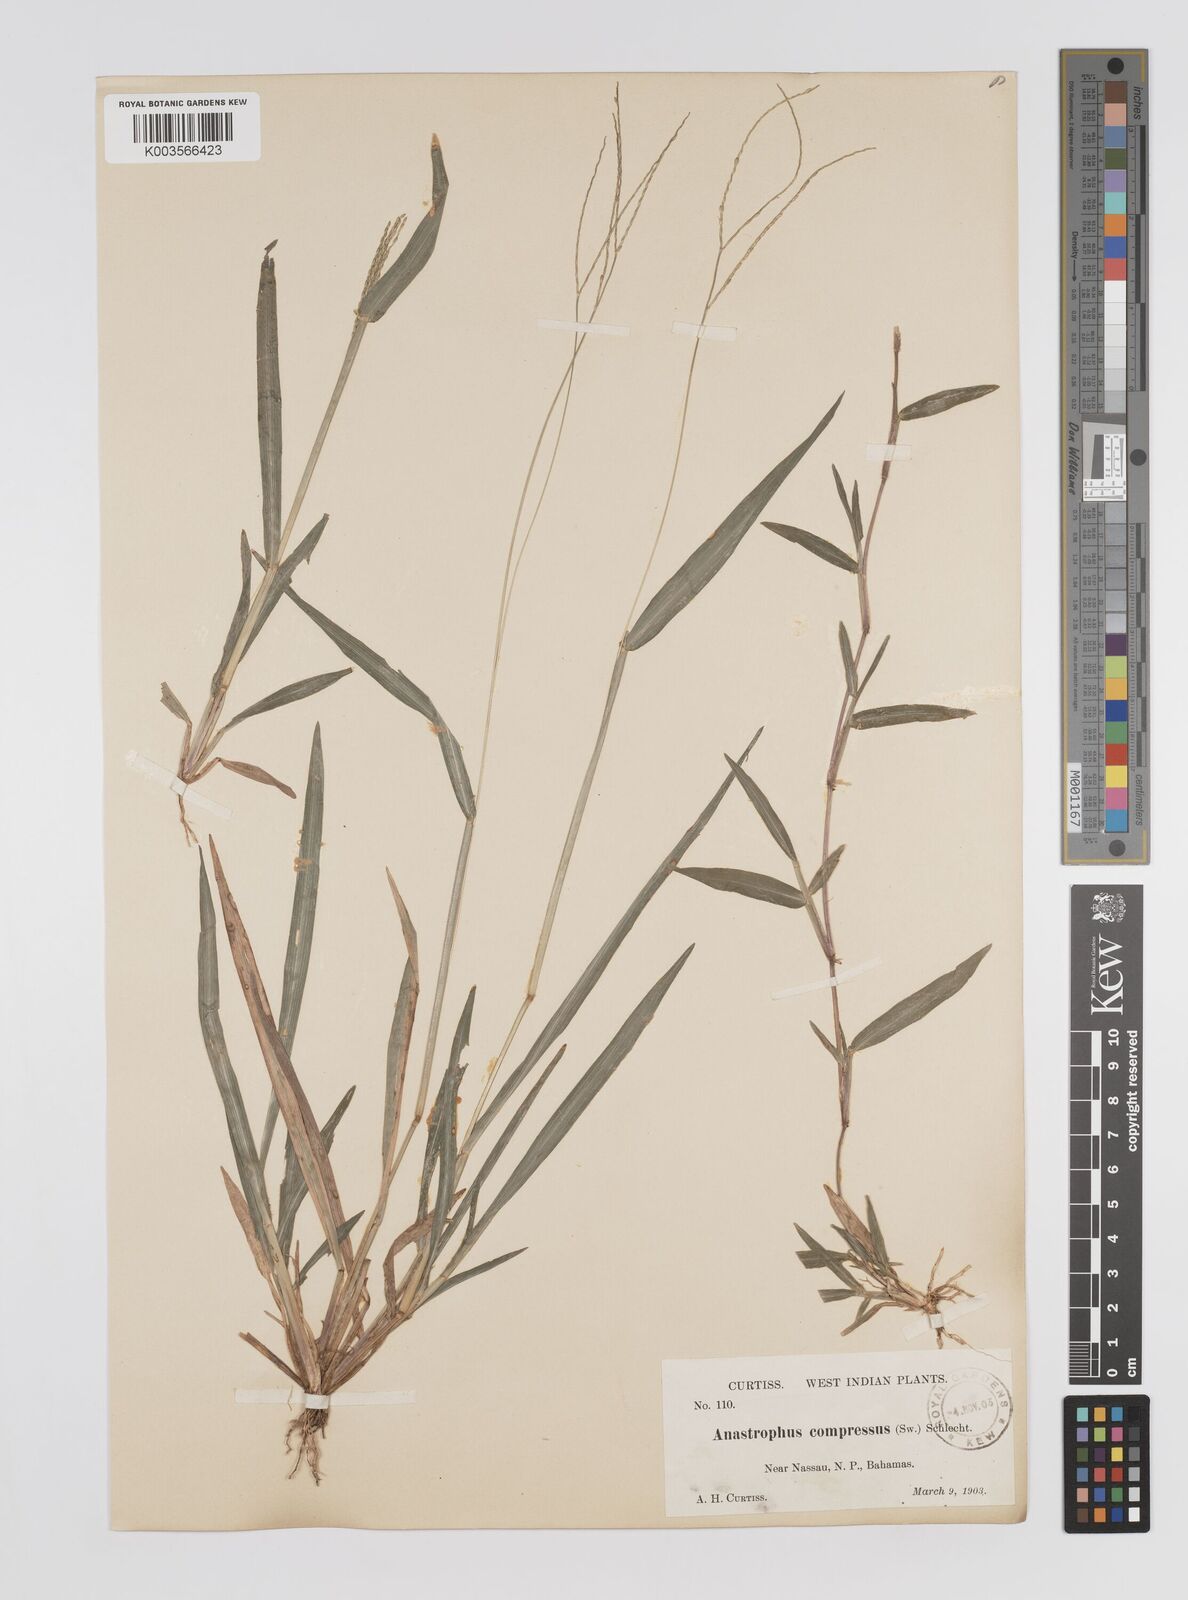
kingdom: Plantae
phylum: Tracheophyta
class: Liliopsida
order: Poales
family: Poaceae
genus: Axonopus
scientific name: Axonopus compressus
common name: American carpet grass
